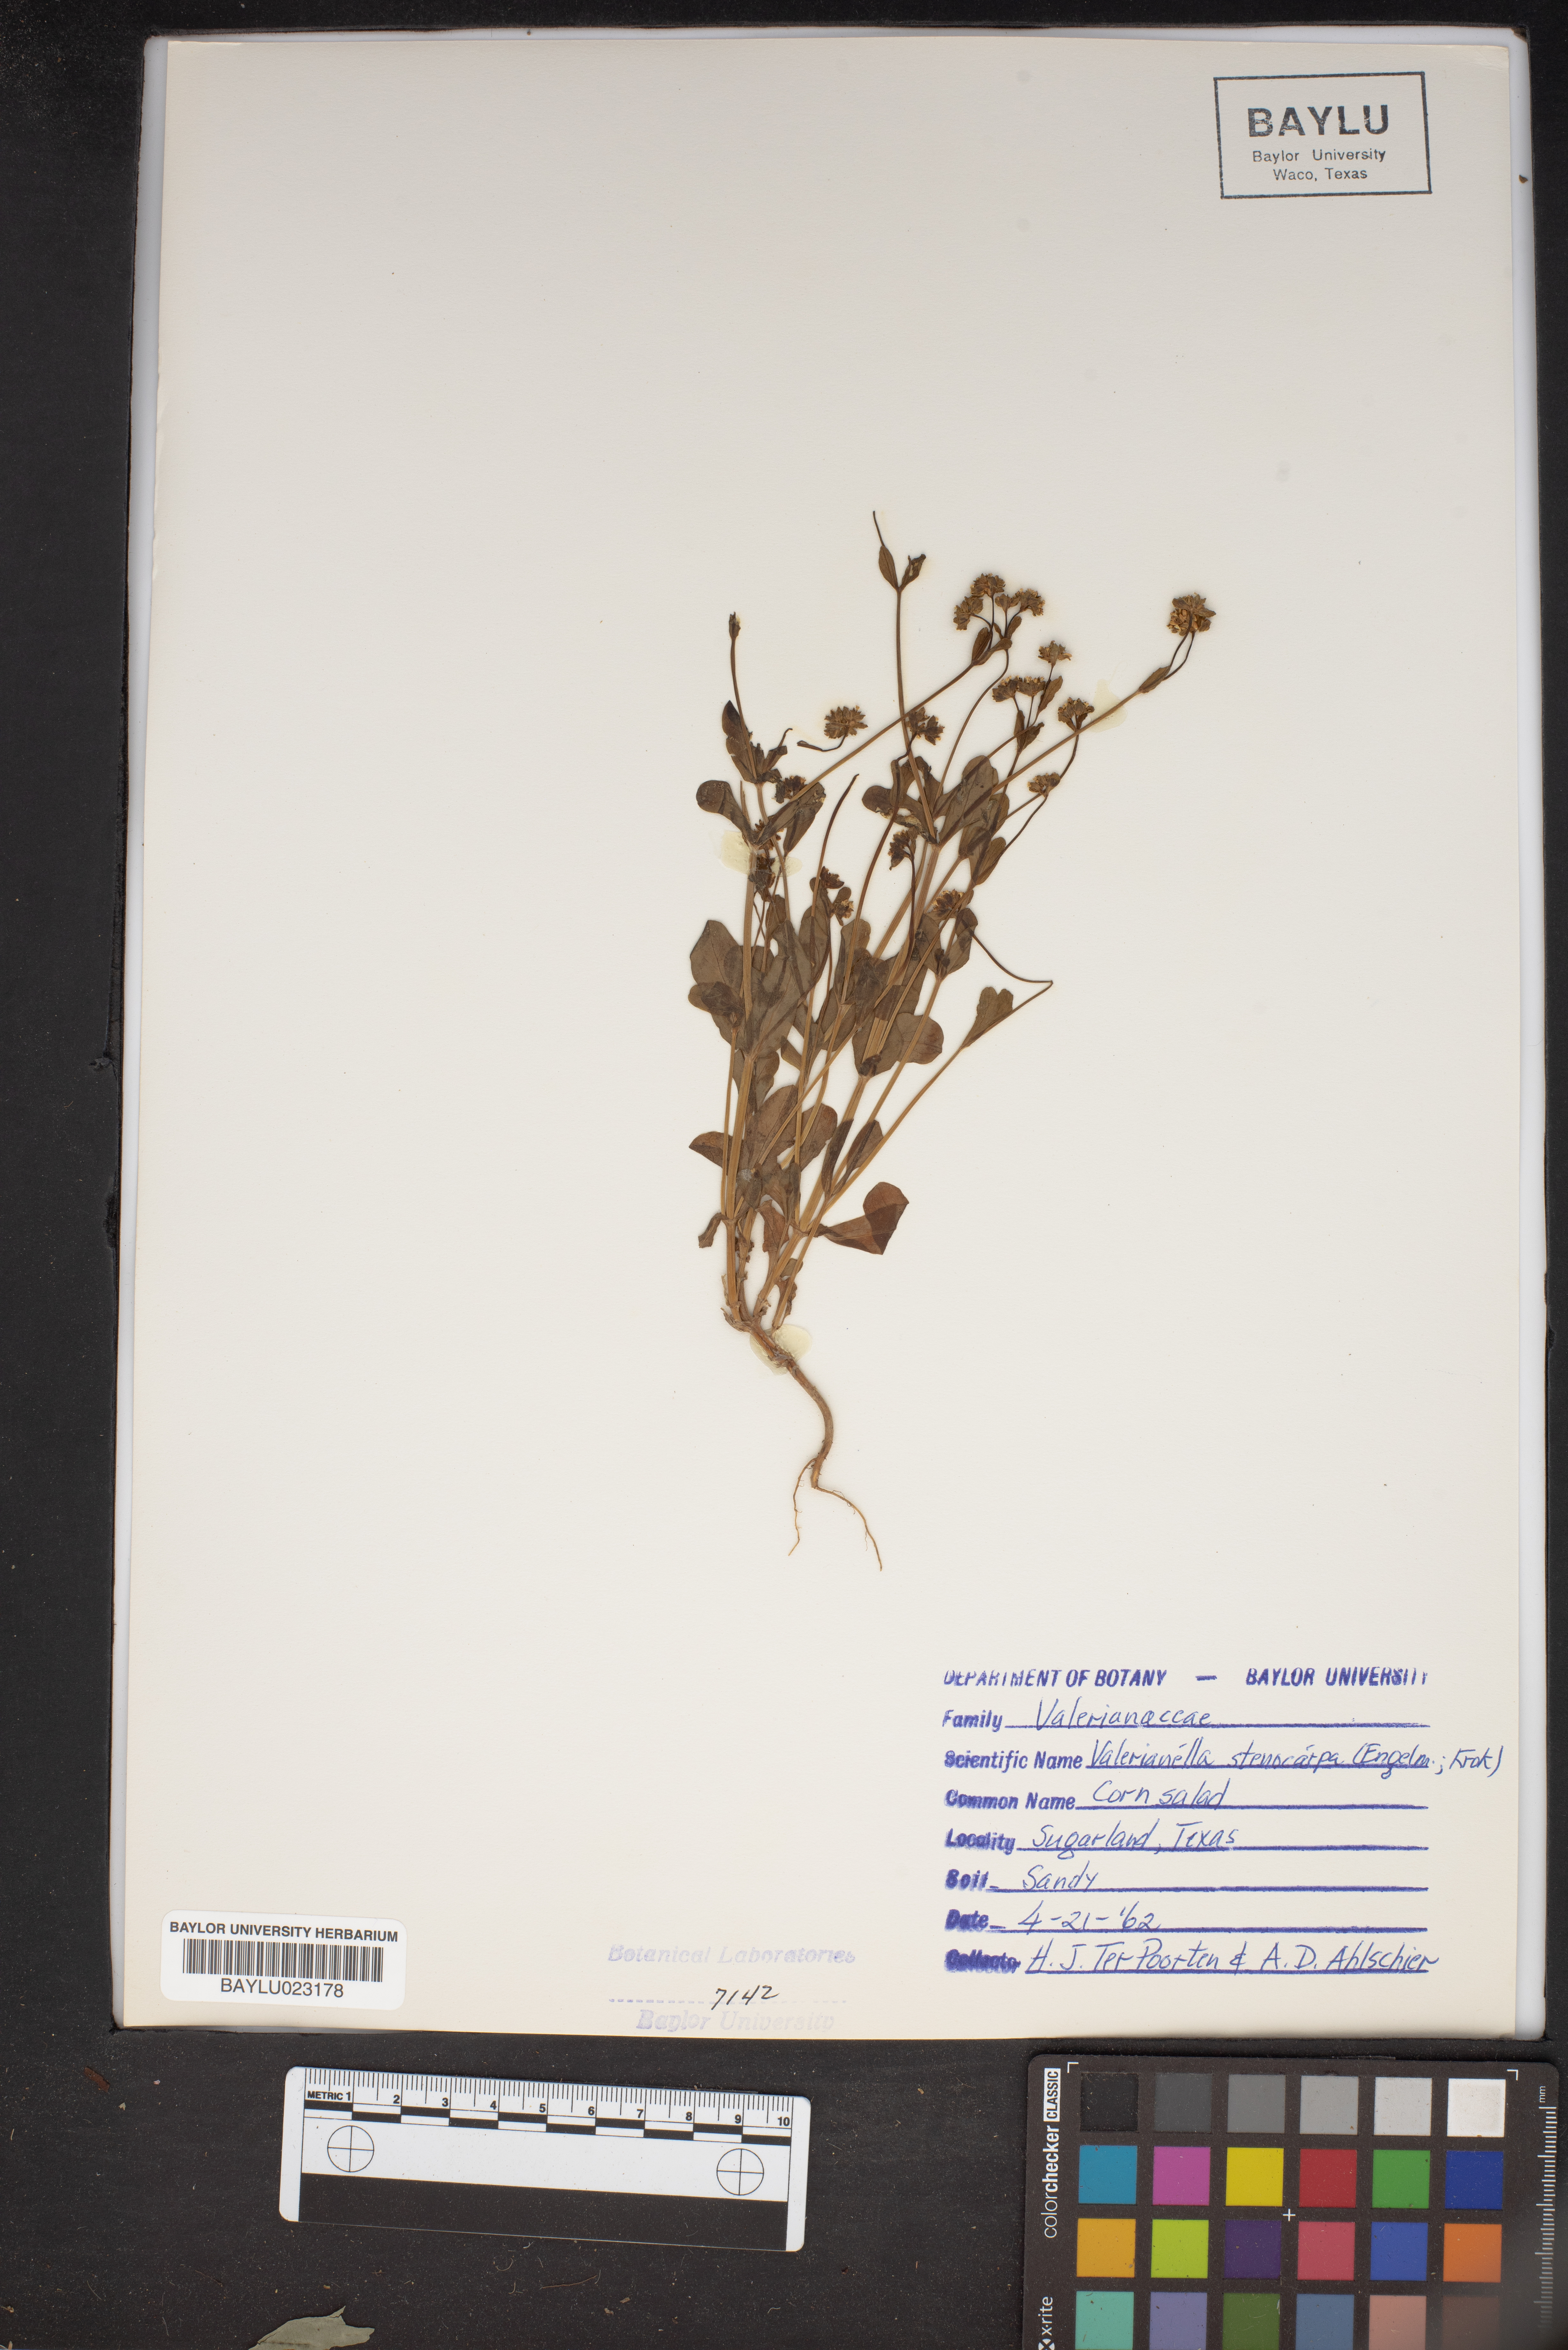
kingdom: Plantae
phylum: Tracheophyta
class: Magnoliopsida
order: Dipsacales
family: Caprifoliaceae
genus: Valerianella
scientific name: Valerianella stenocarpa
